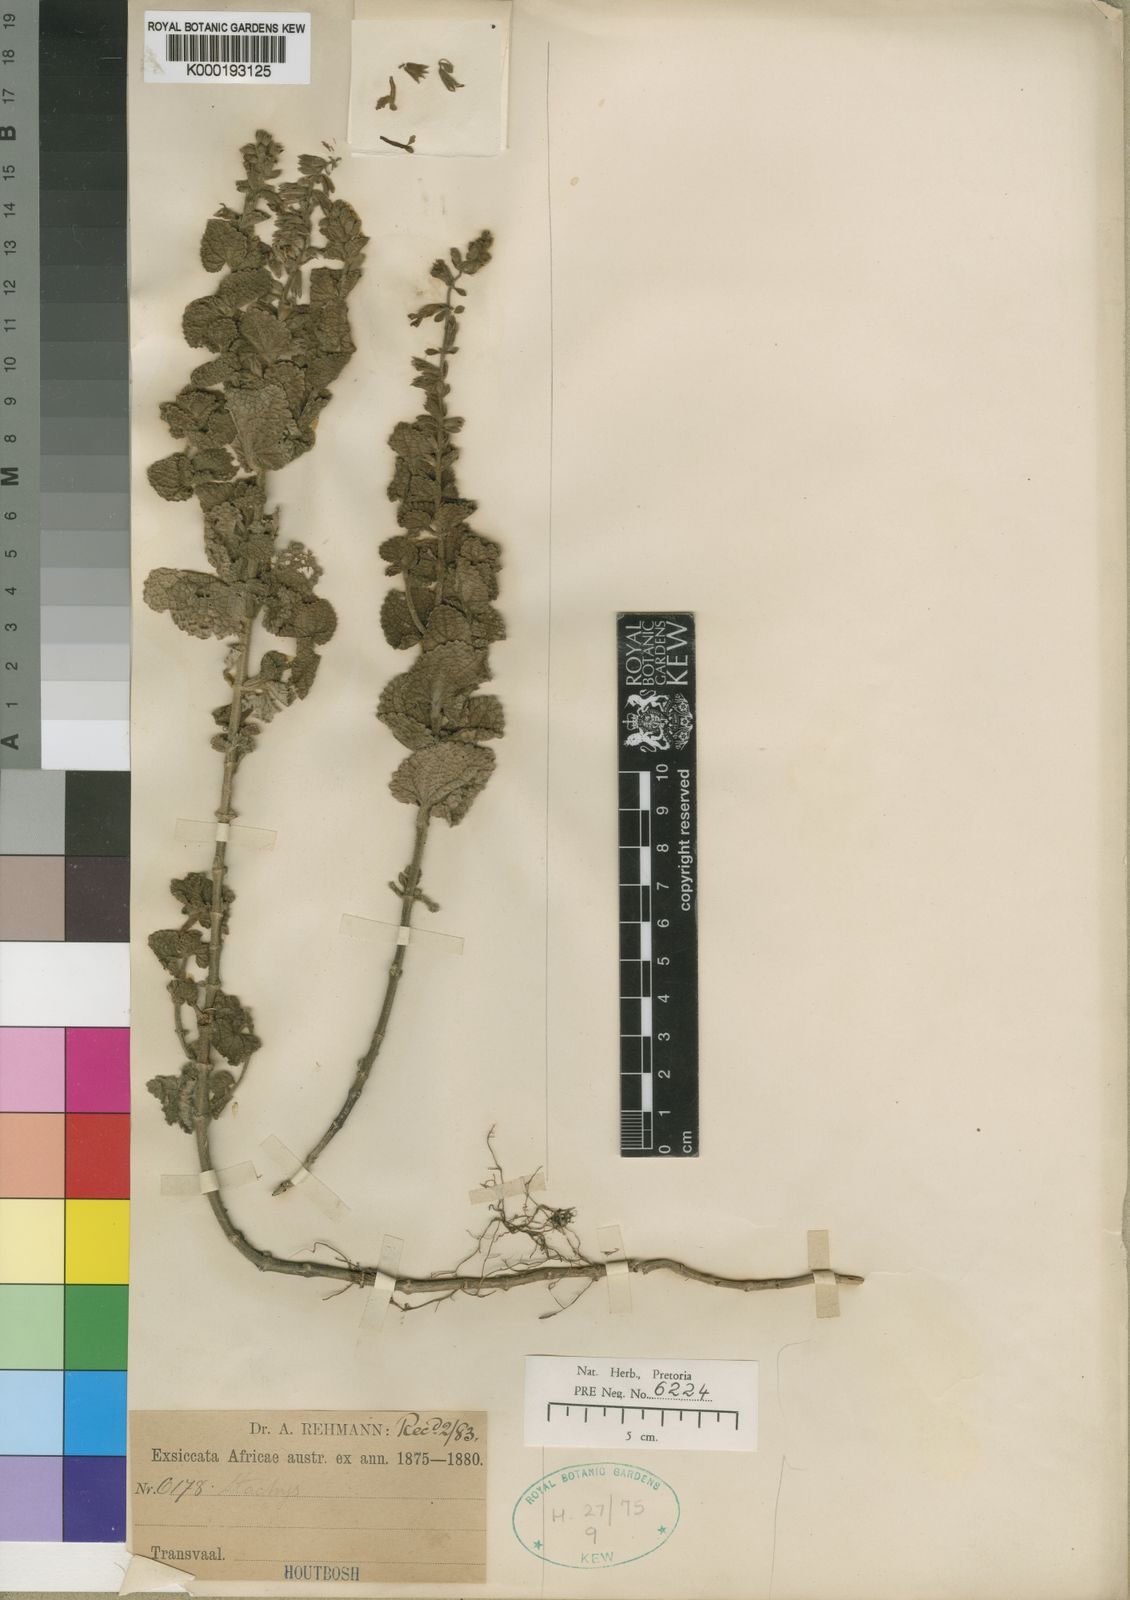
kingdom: Plantae
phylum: Tracheophyta
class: Magnoliopsida
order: Lamiales
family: Lamiaceae
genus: Stachys
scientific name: Stachys rehmannii
